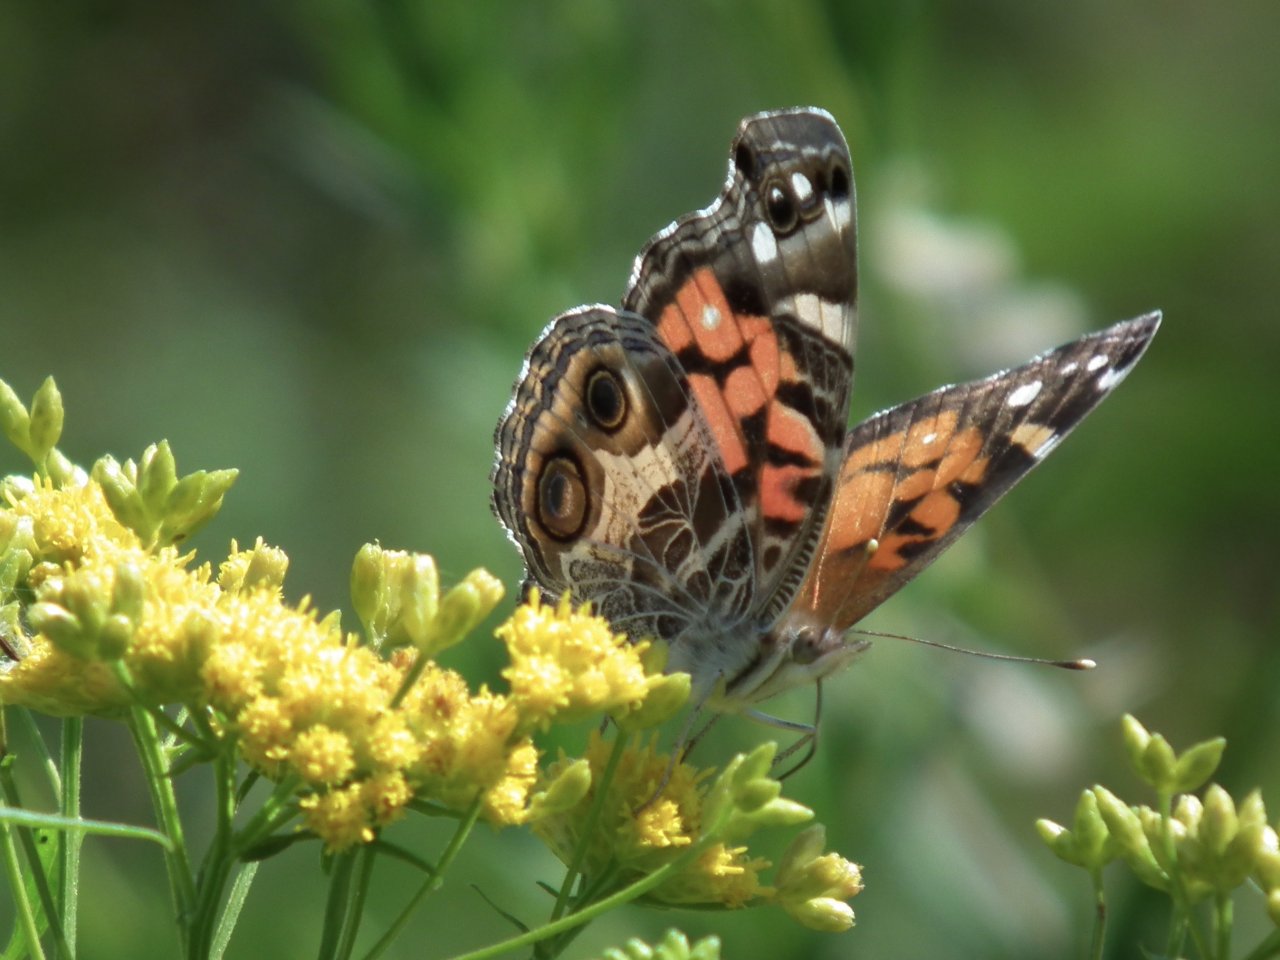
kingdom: Animalia
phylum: Arthropoda
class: Insecta
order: Lepidoptera
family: Nymphalidae
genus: Vanessa
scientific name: Vanessa virginiensis
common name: American Lady
